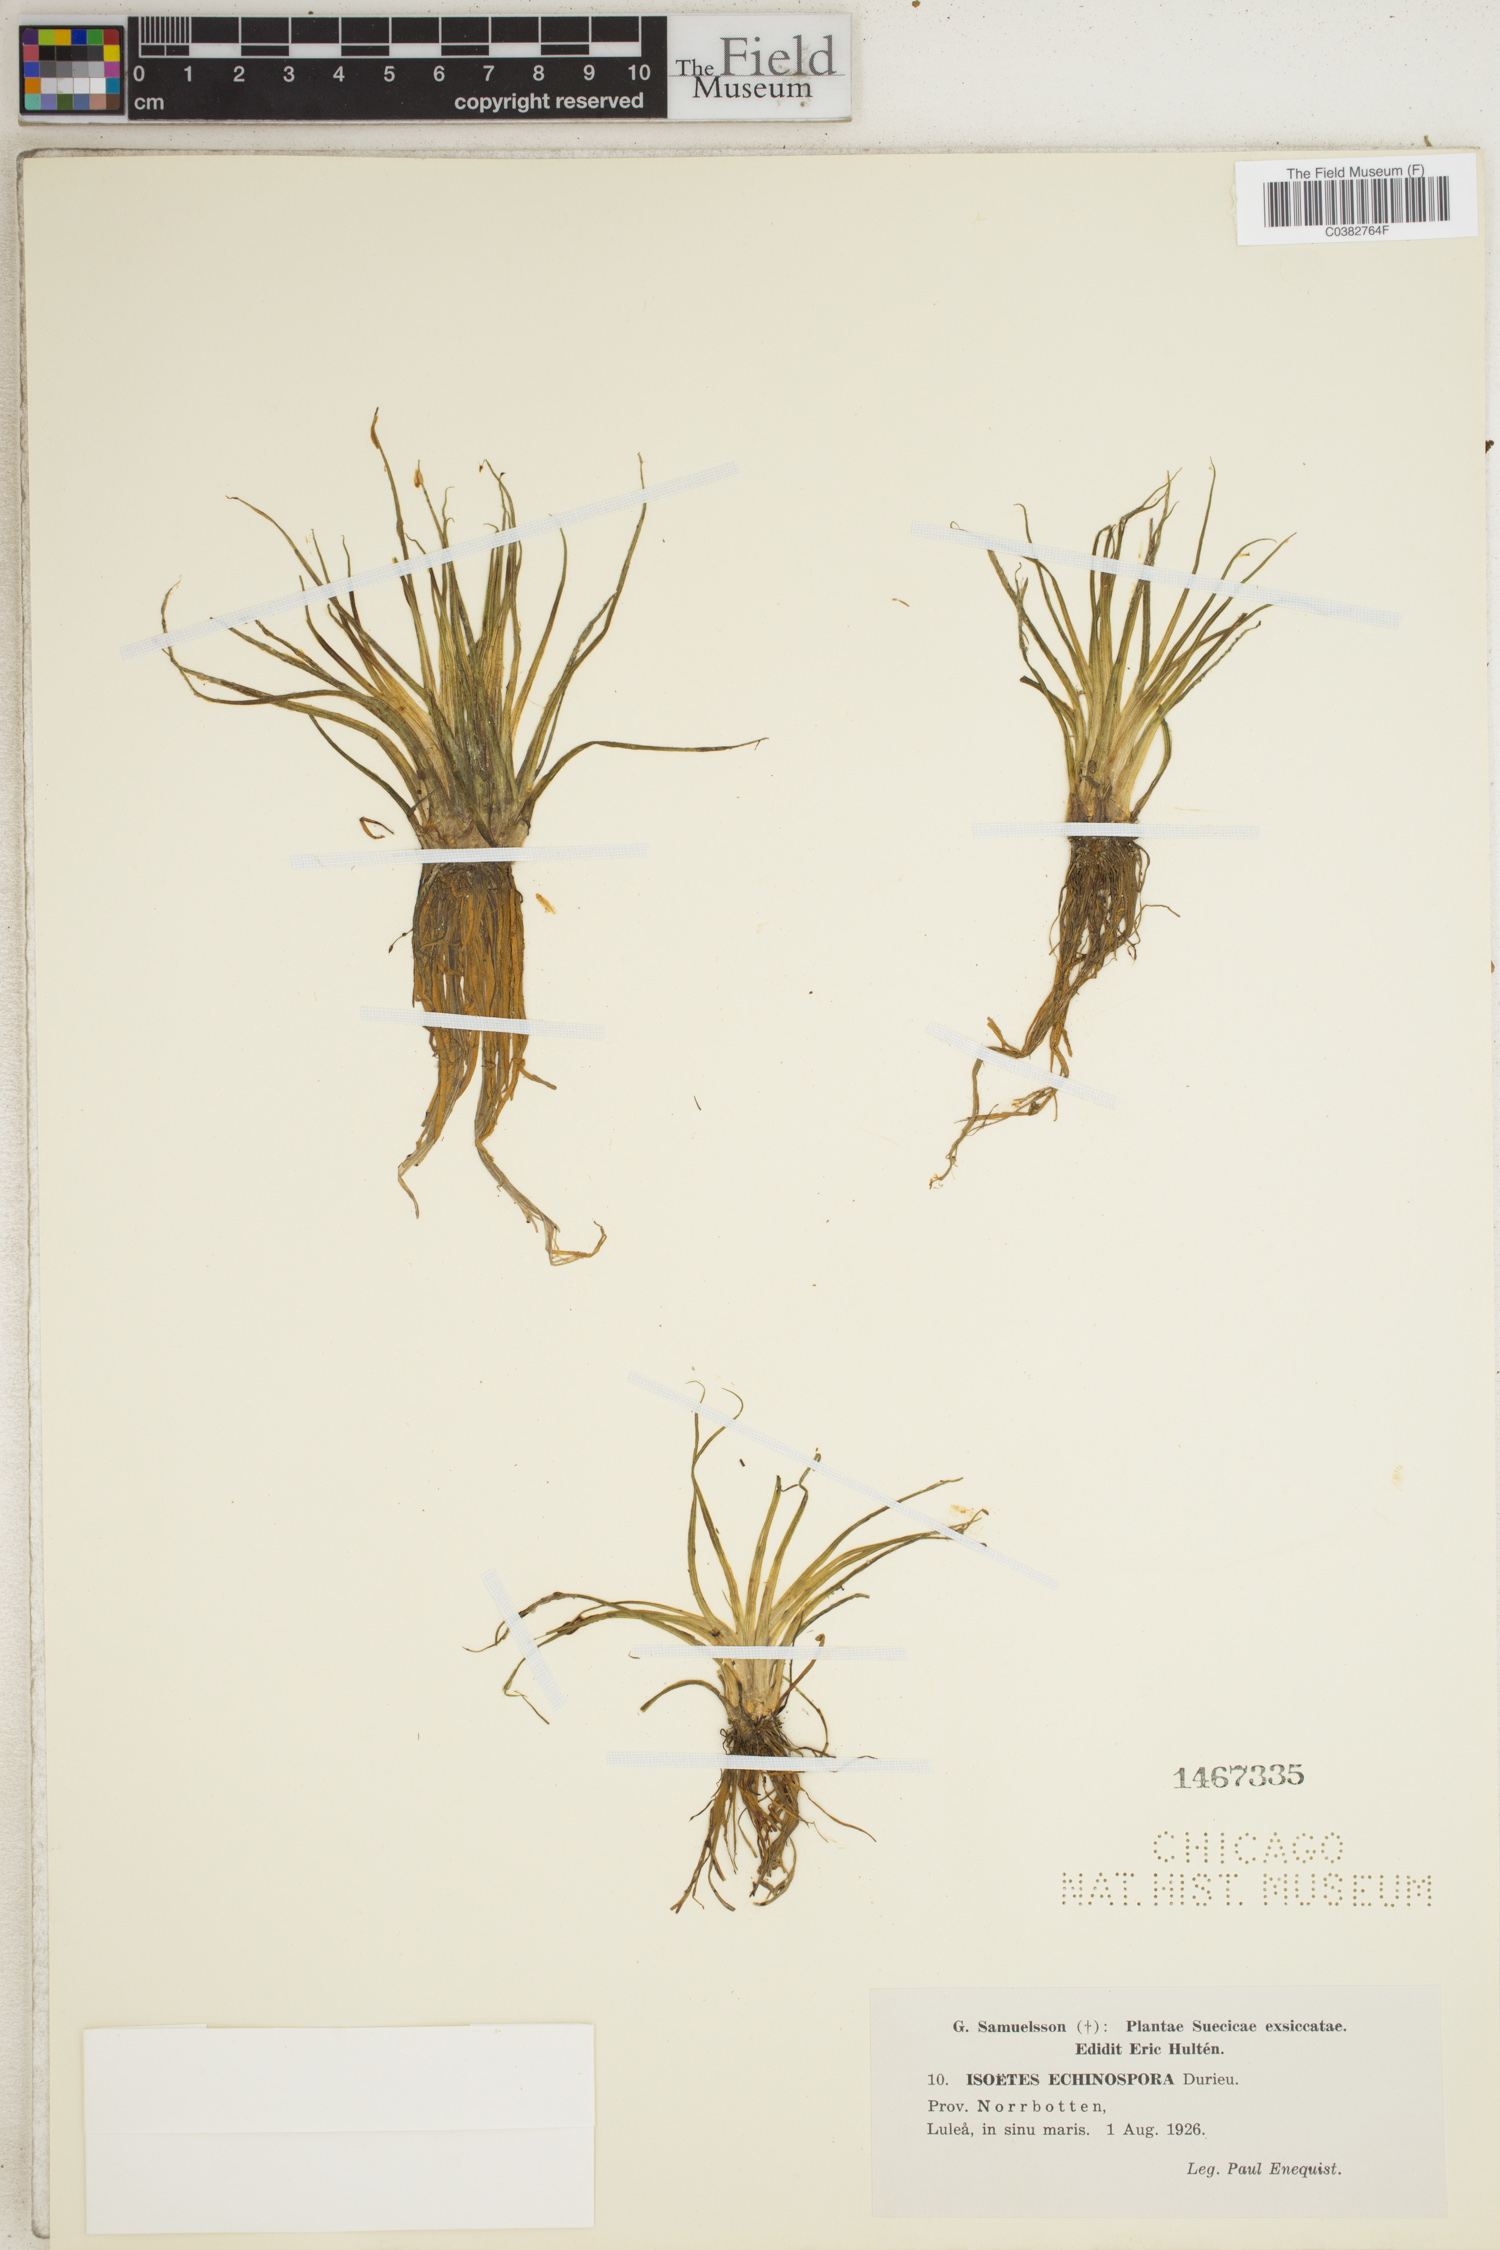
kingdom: Plantae
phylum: Tracheophyta
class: Lycopodiopsida
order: Isoetales
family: Isoetaceae
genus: Isoetes
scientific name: Isoetes echinospora
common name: Spring quillwort
